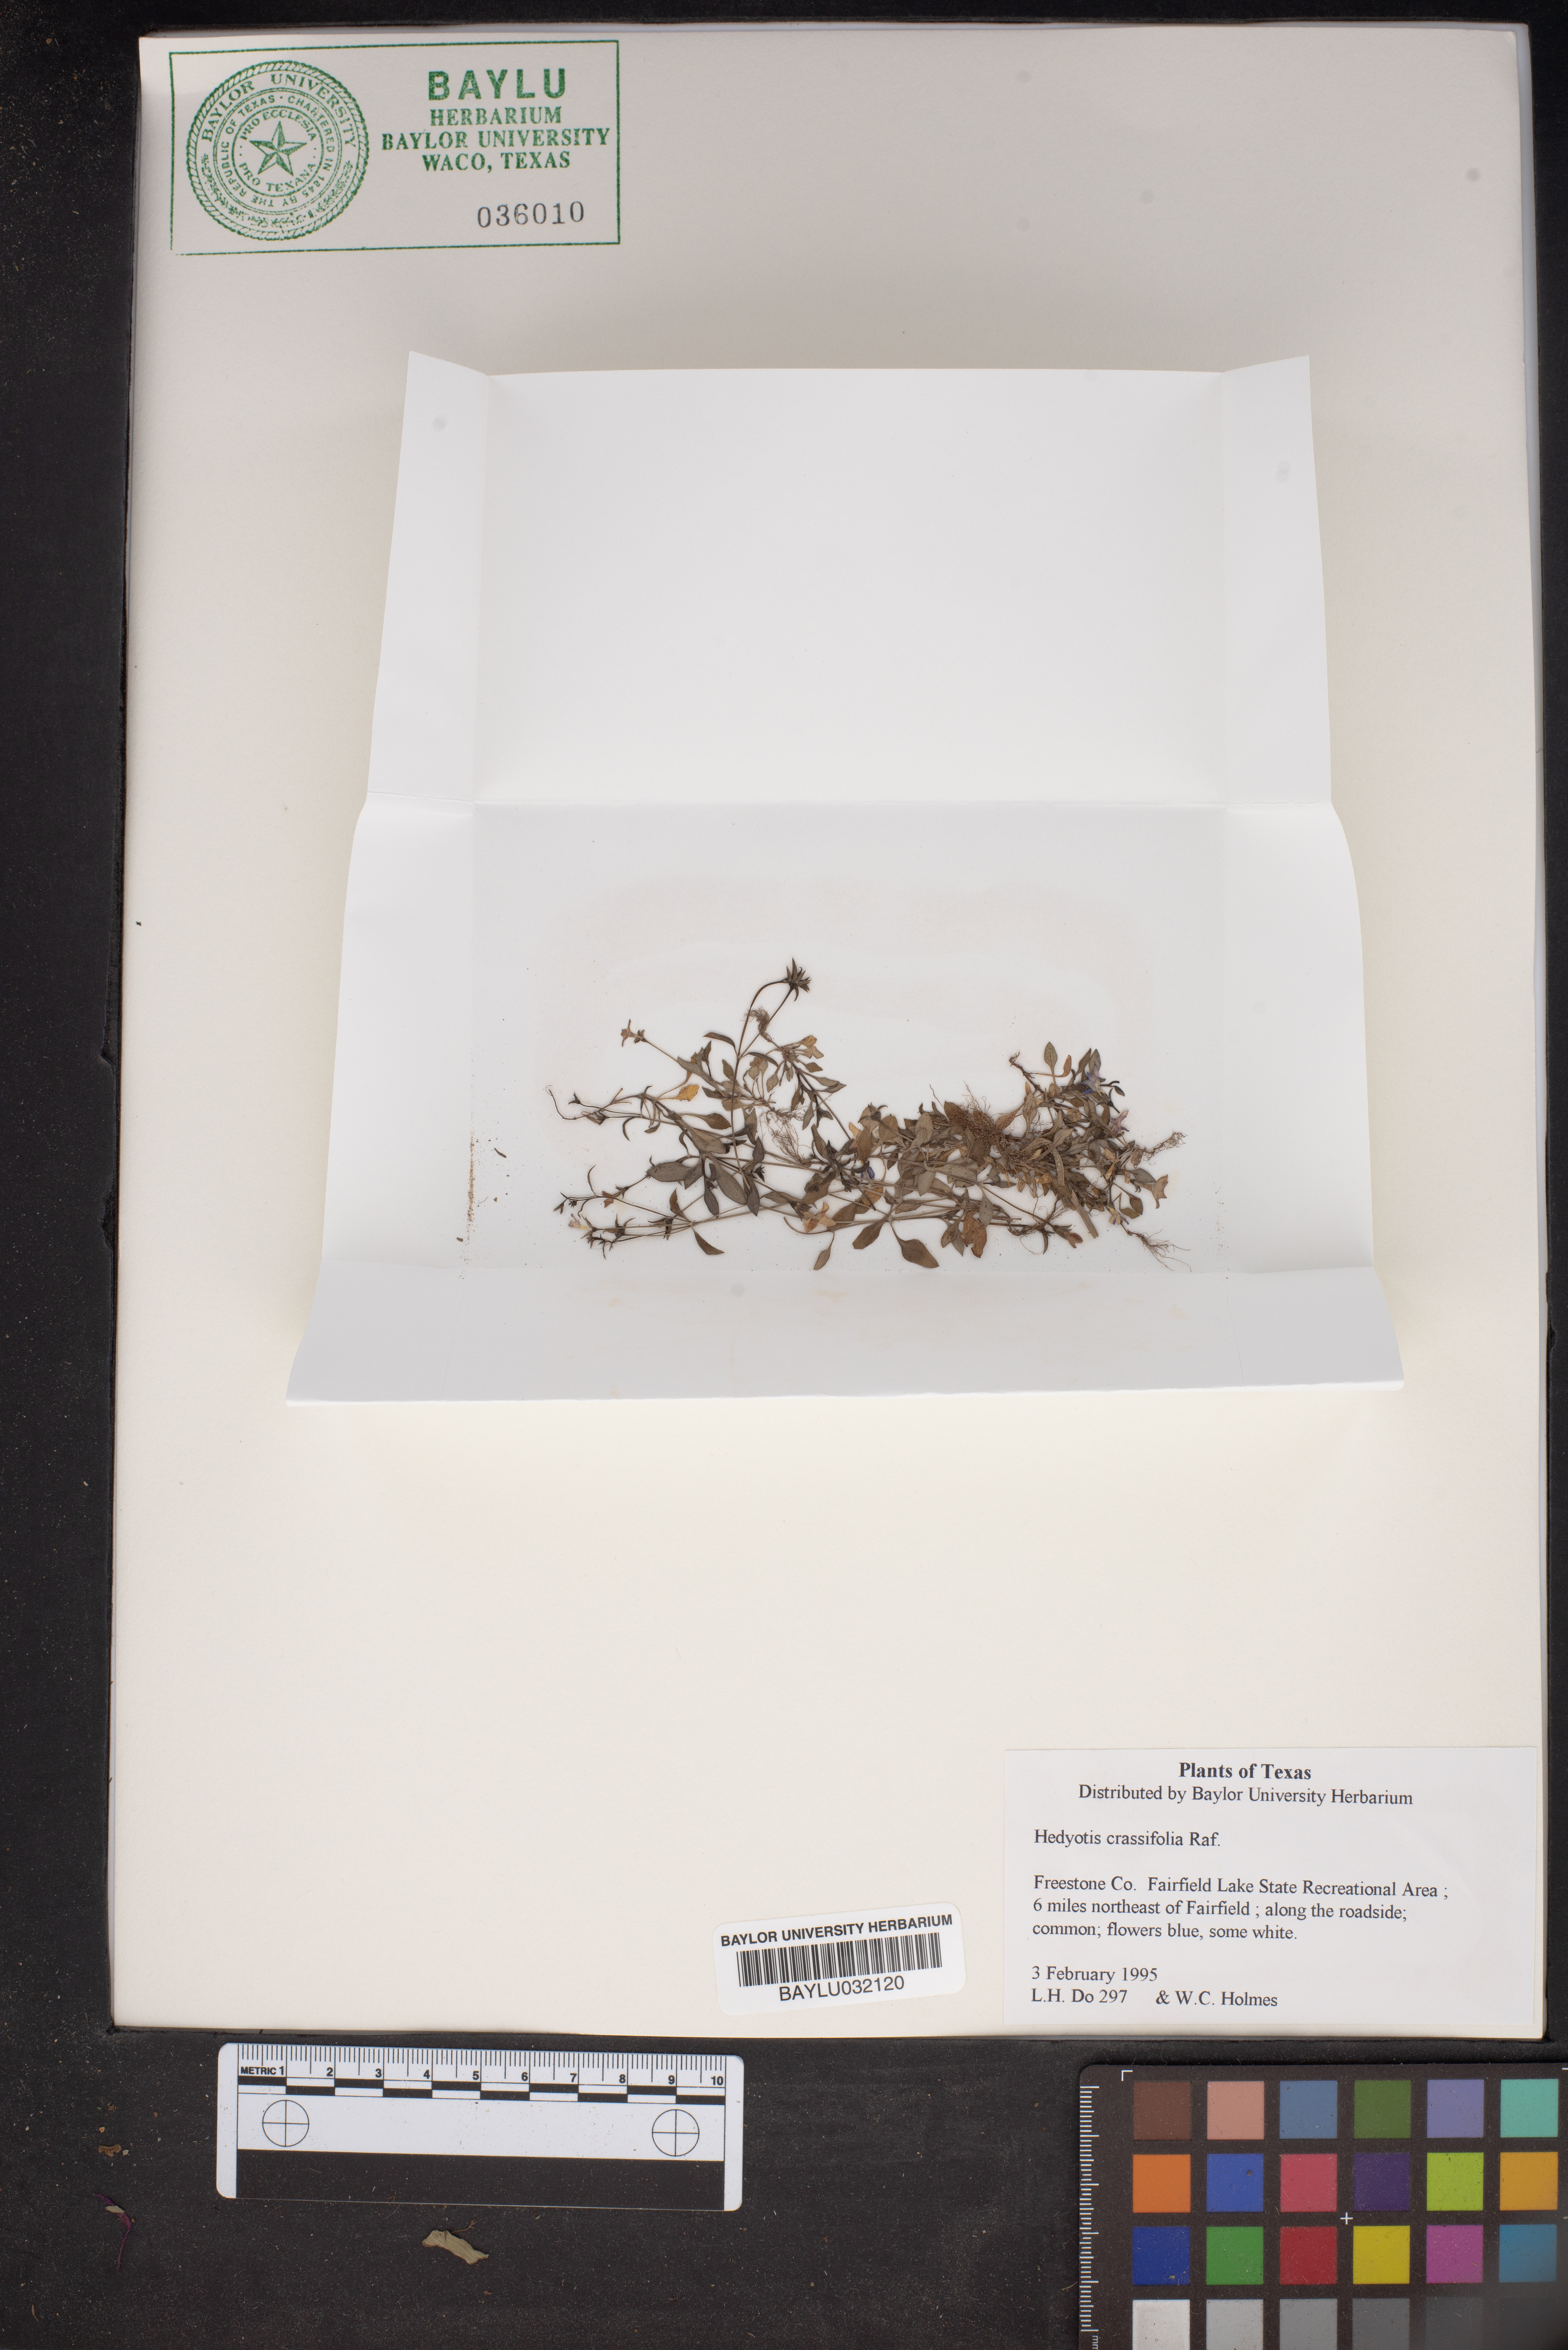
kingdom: Plantae
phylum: Tracheophyta
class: Magnoliopsida
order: Gentianales
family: Rubiaceae
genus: Houstonia
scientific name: Houstonia pusilla
